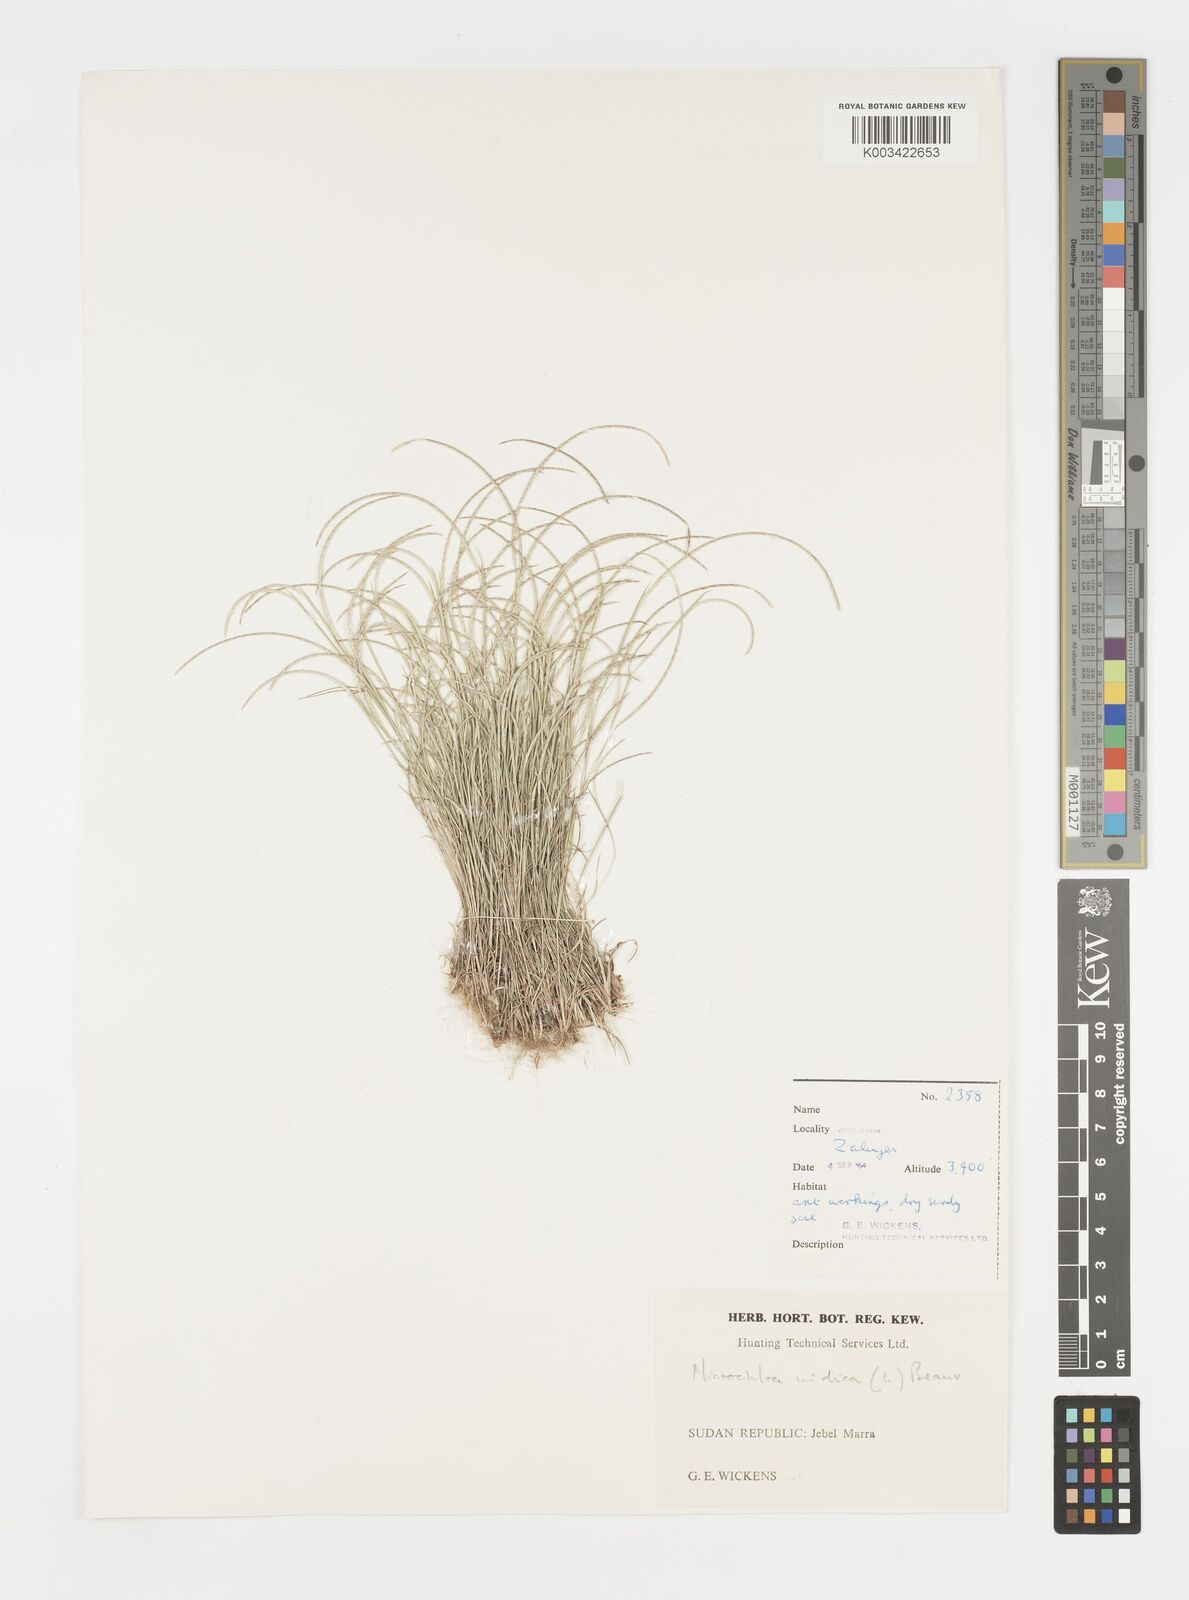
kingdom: Plantae
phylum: Tracheophyta
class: Liliopsida
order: Poales
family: Poaceae
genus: Microchloa
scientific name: Microchloa indica
